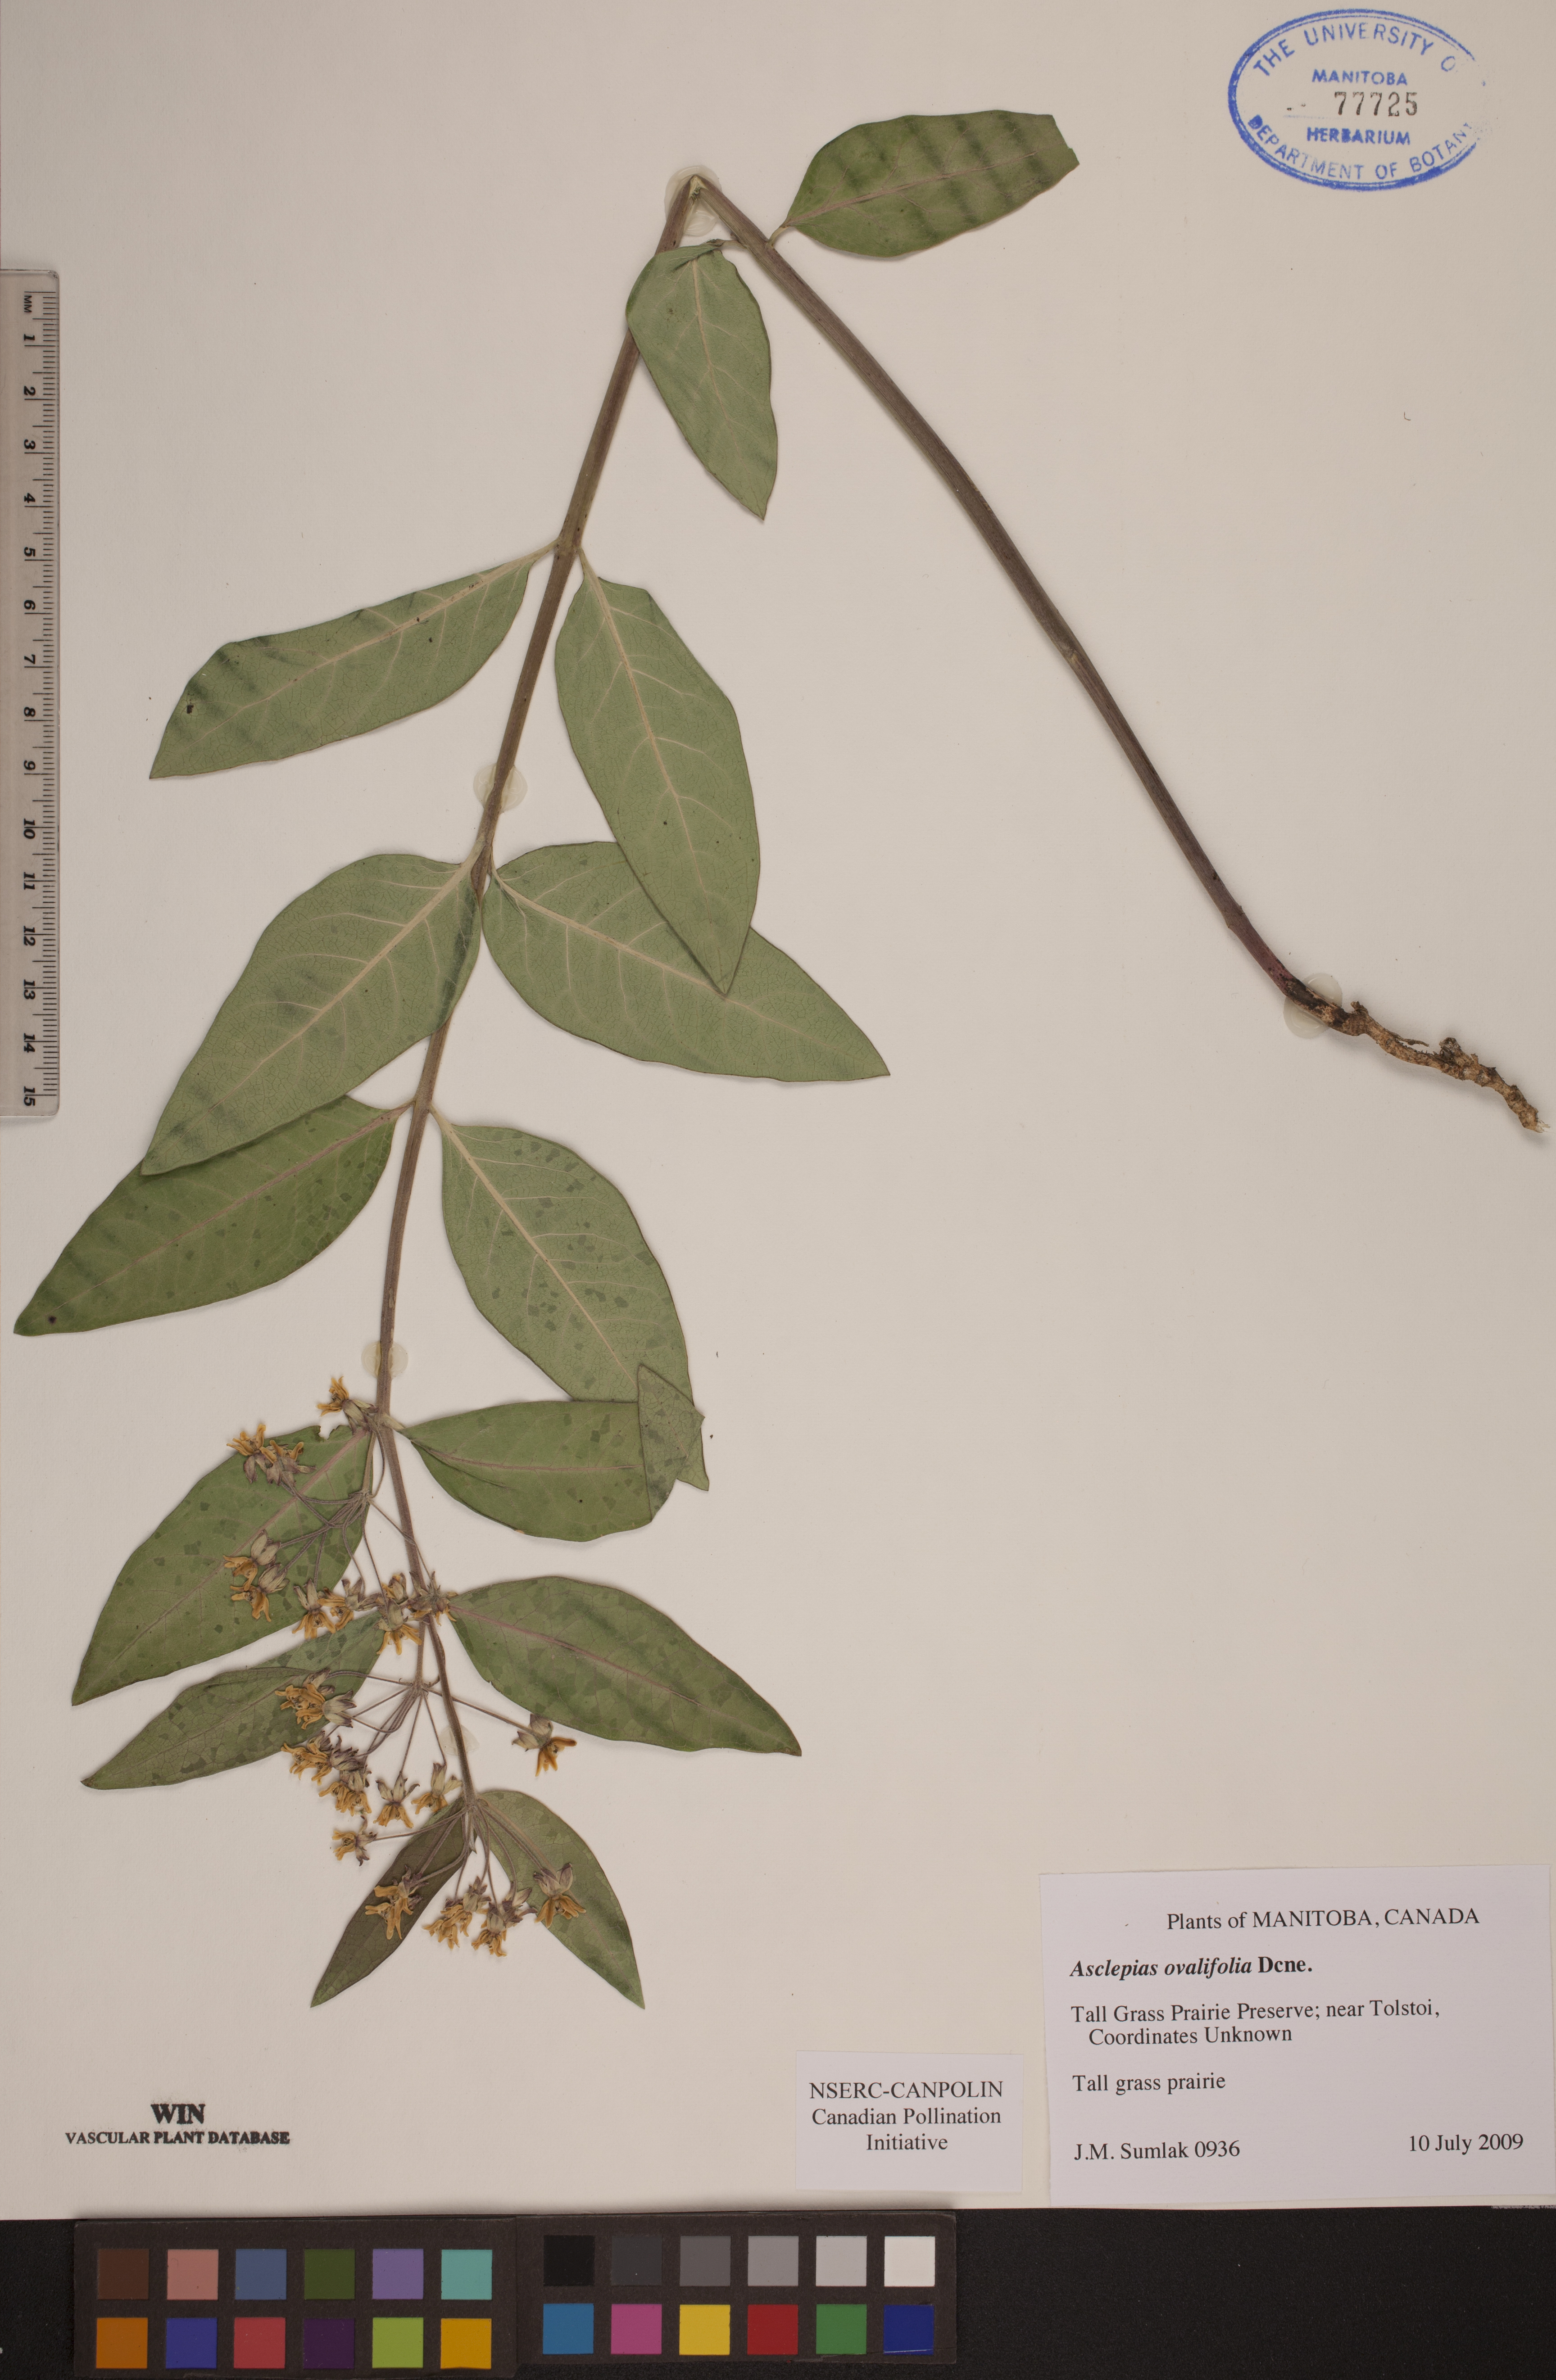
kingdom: Plantae
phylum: Tracheophyta
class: Magnoliopsida
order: Gentianales
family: Apocynaceae
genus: Asclepias
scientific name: Asclepias ovalifolia
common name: Dwarf milkweed
